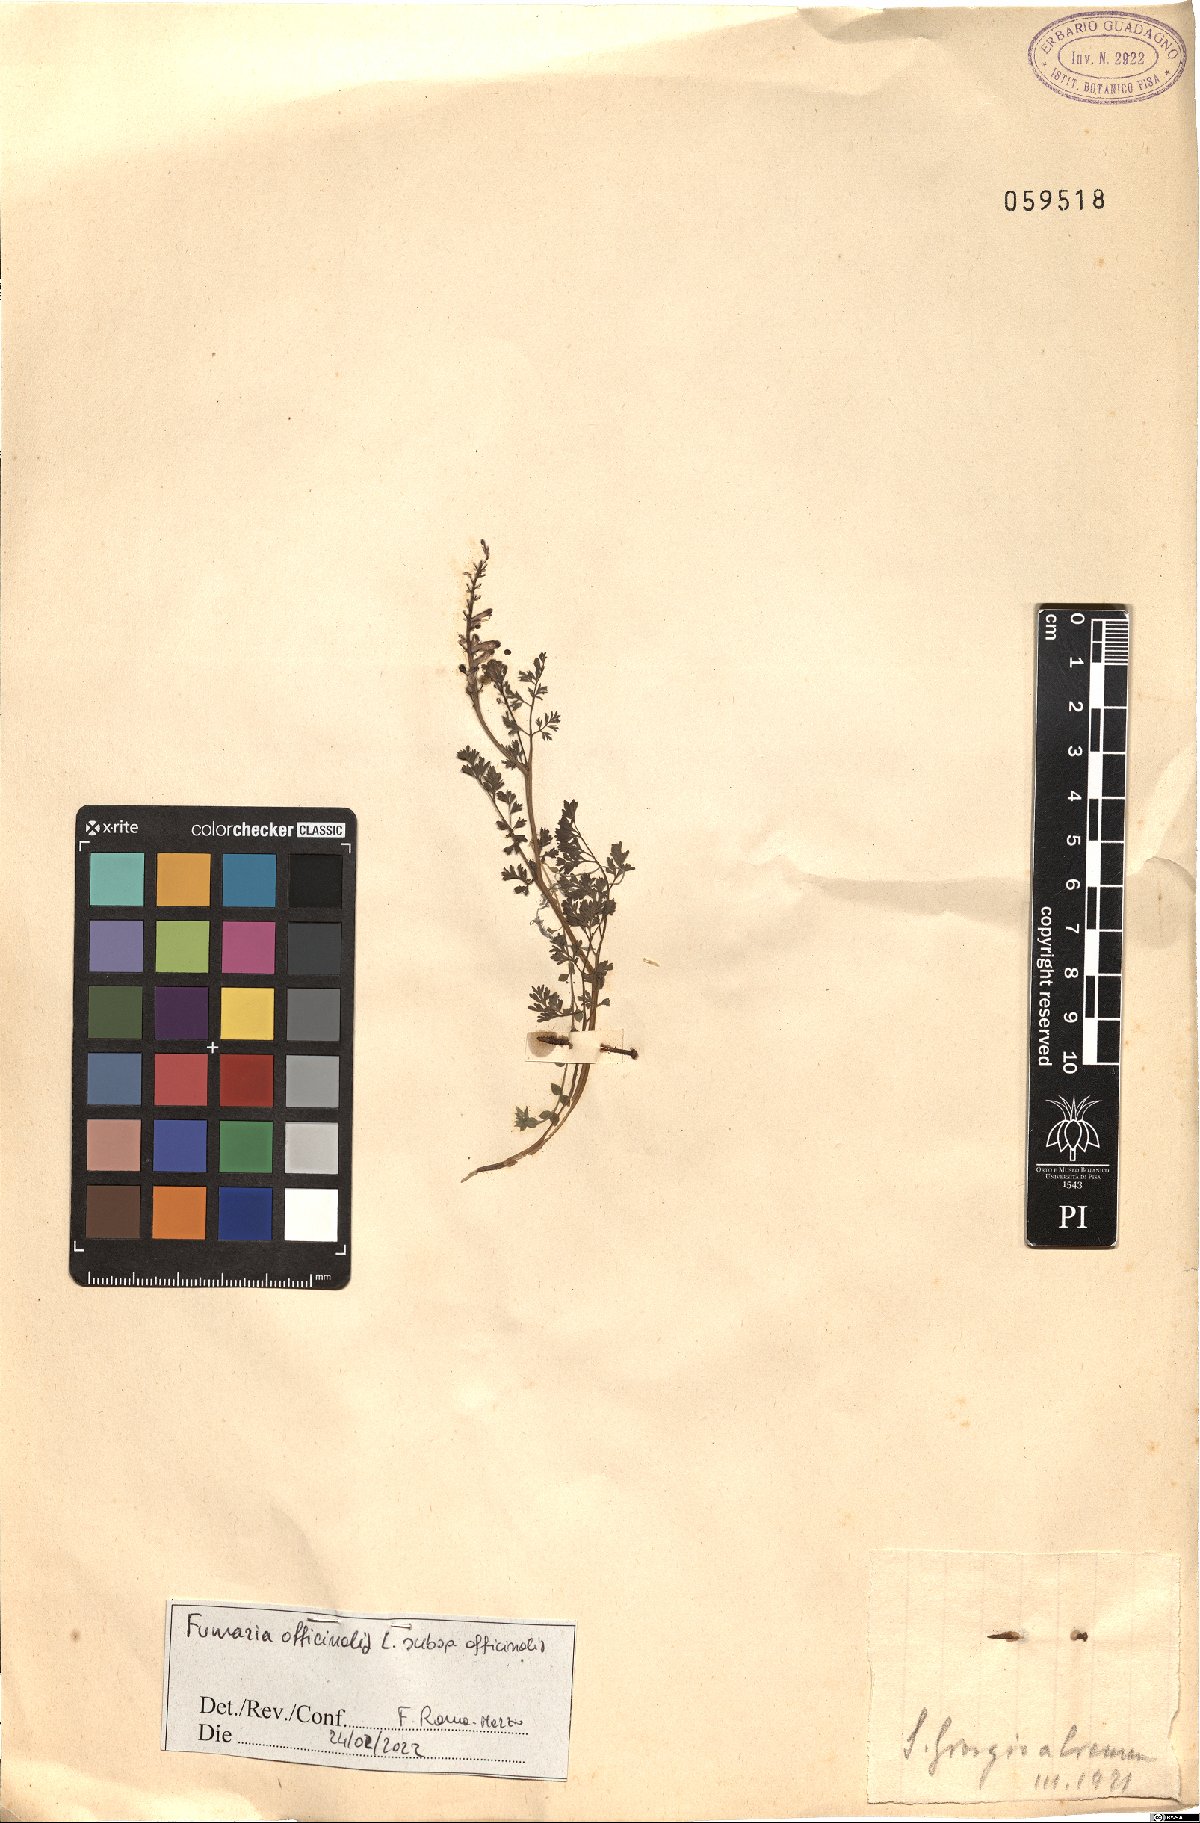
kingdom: Plantae
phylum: Tracheophyta
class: Magnoliopsida
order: Ranunculales
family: Papaveraceae
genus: Fumaria
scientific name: Fumaria officinalis
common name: Common fumitory
